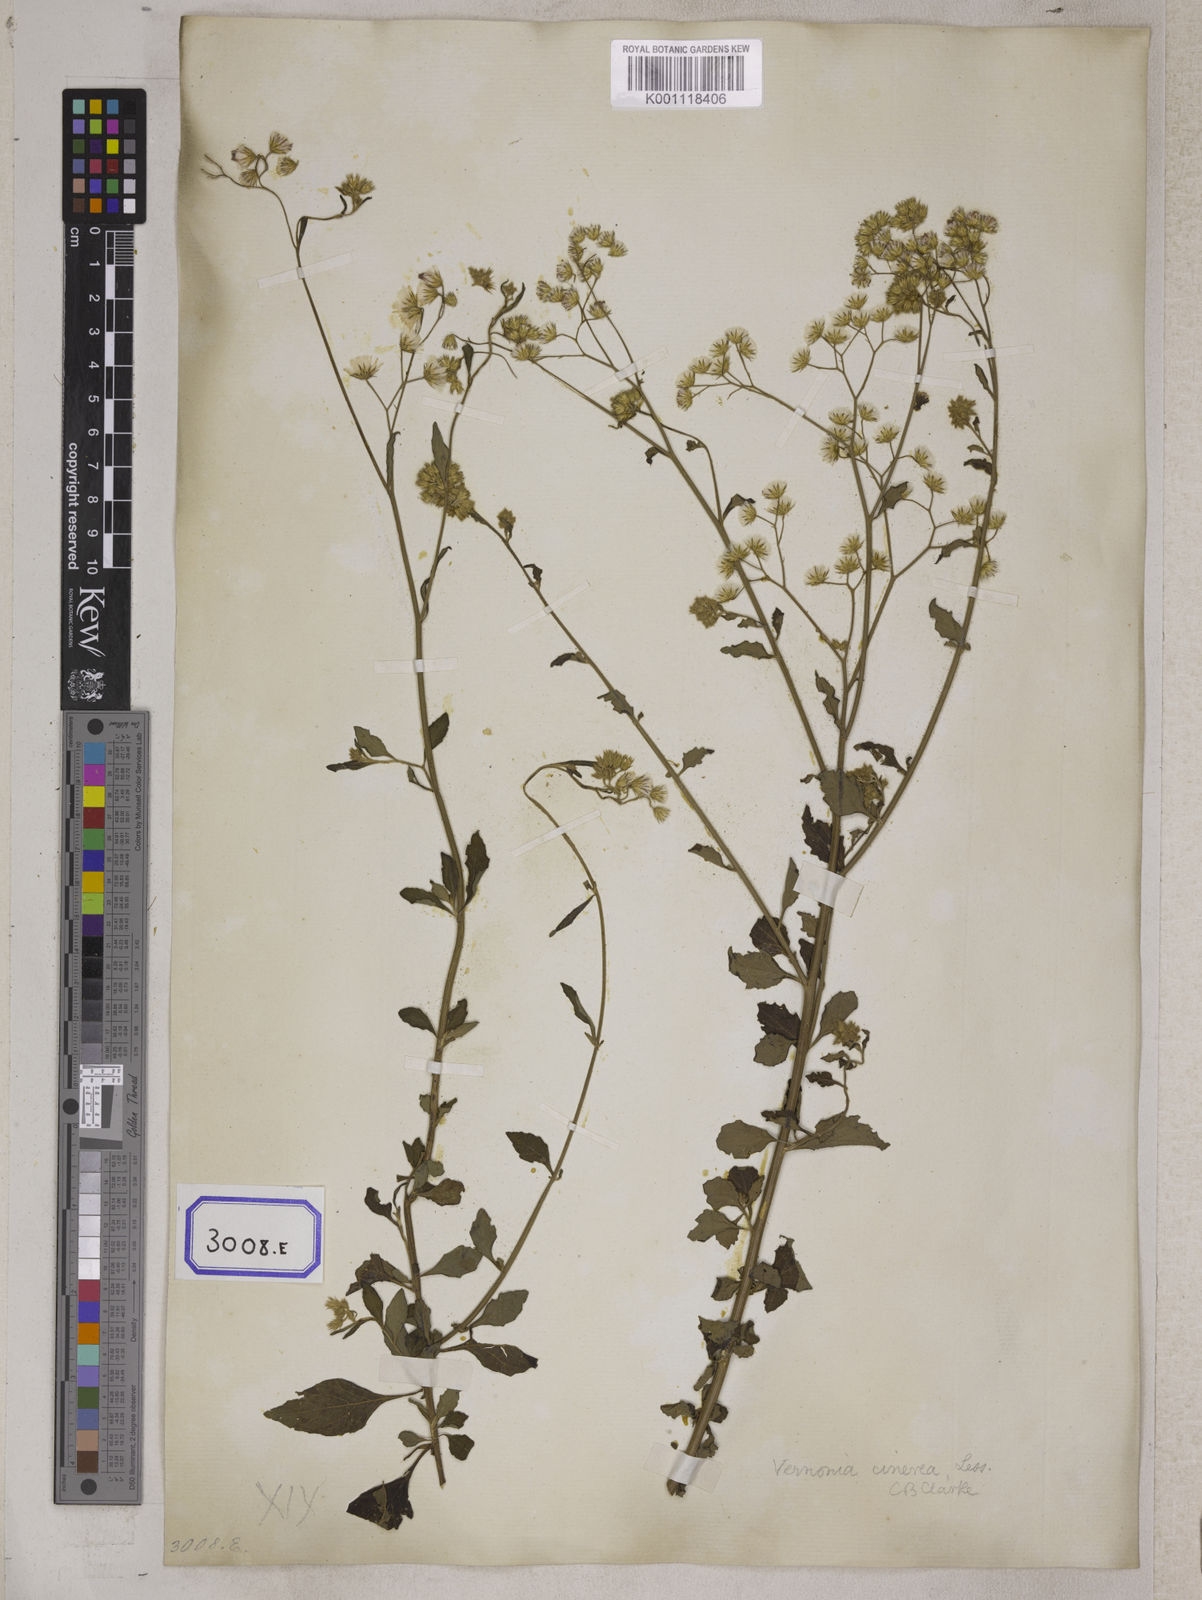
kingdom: Plantae
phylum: Tracheophyta
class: Magnoliopsida
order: Asterales
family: Asteraceae
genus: Cyanthillium
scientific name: Cyanthillium cinereum
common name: Little ironweed
